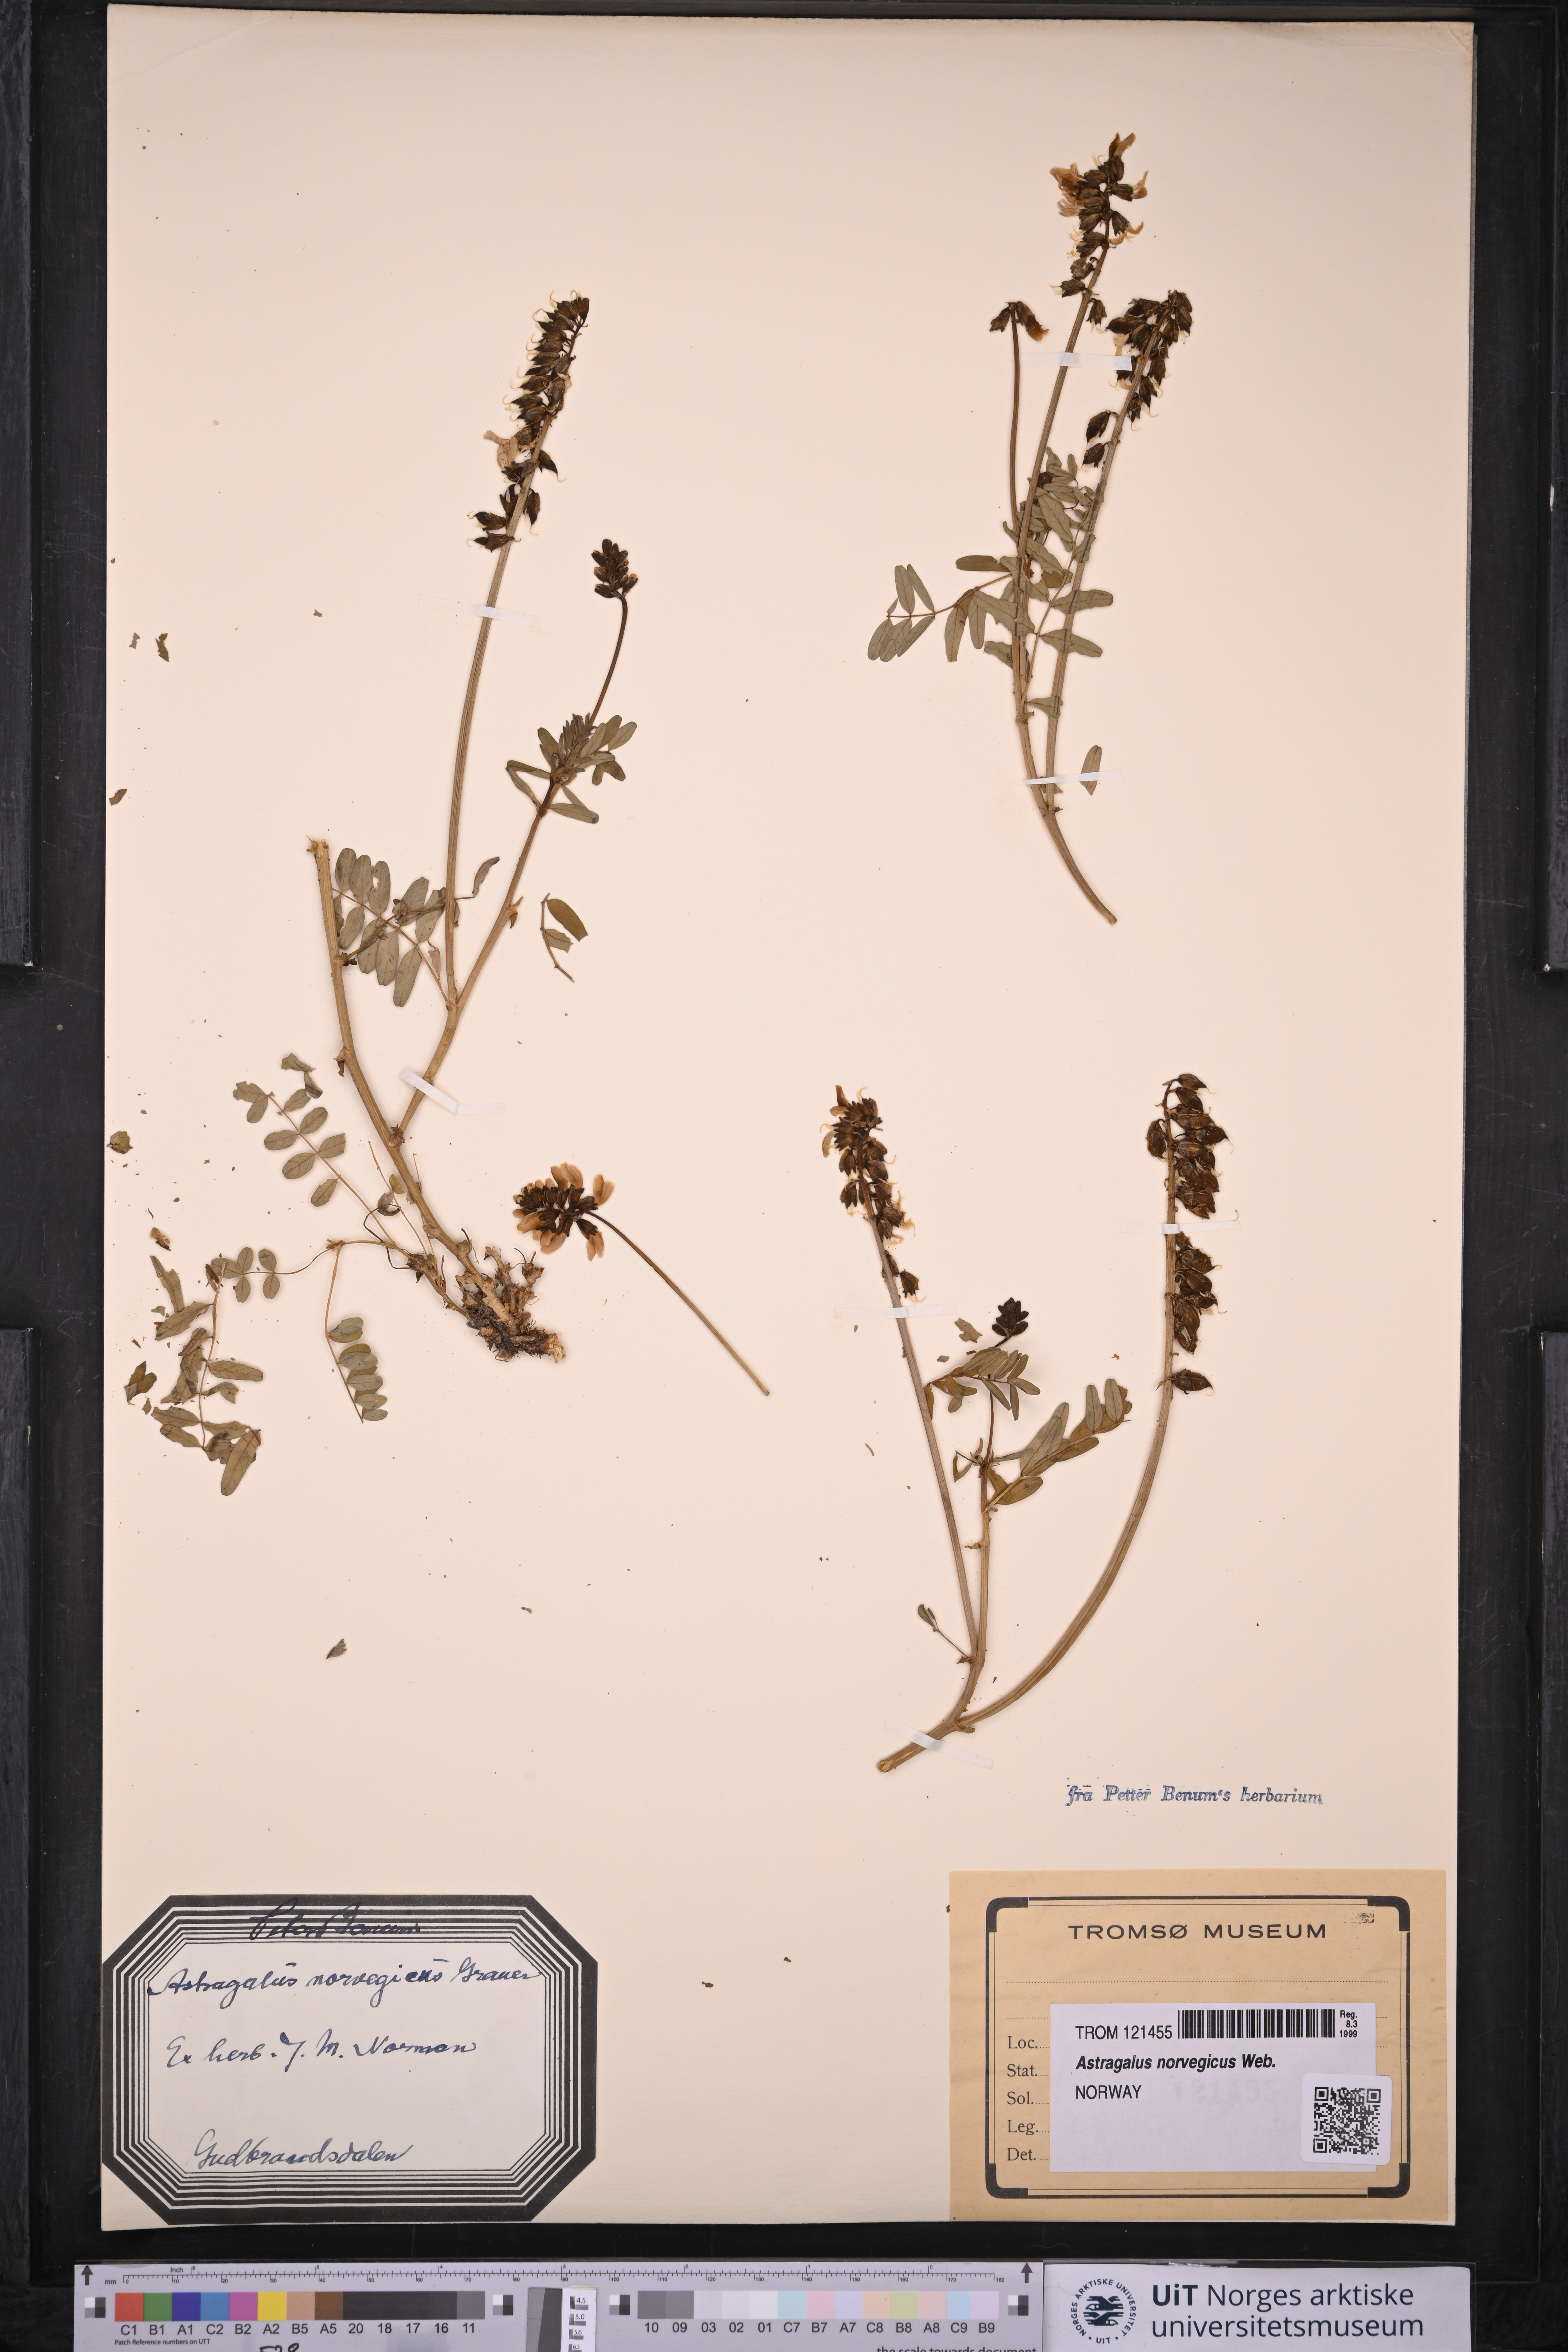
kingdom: Plantae
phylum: Tracheophyta
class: Magnoliopsida
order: Fabales
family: Fabaceae
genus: Astragalus
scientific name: Astragalus norvegicus
